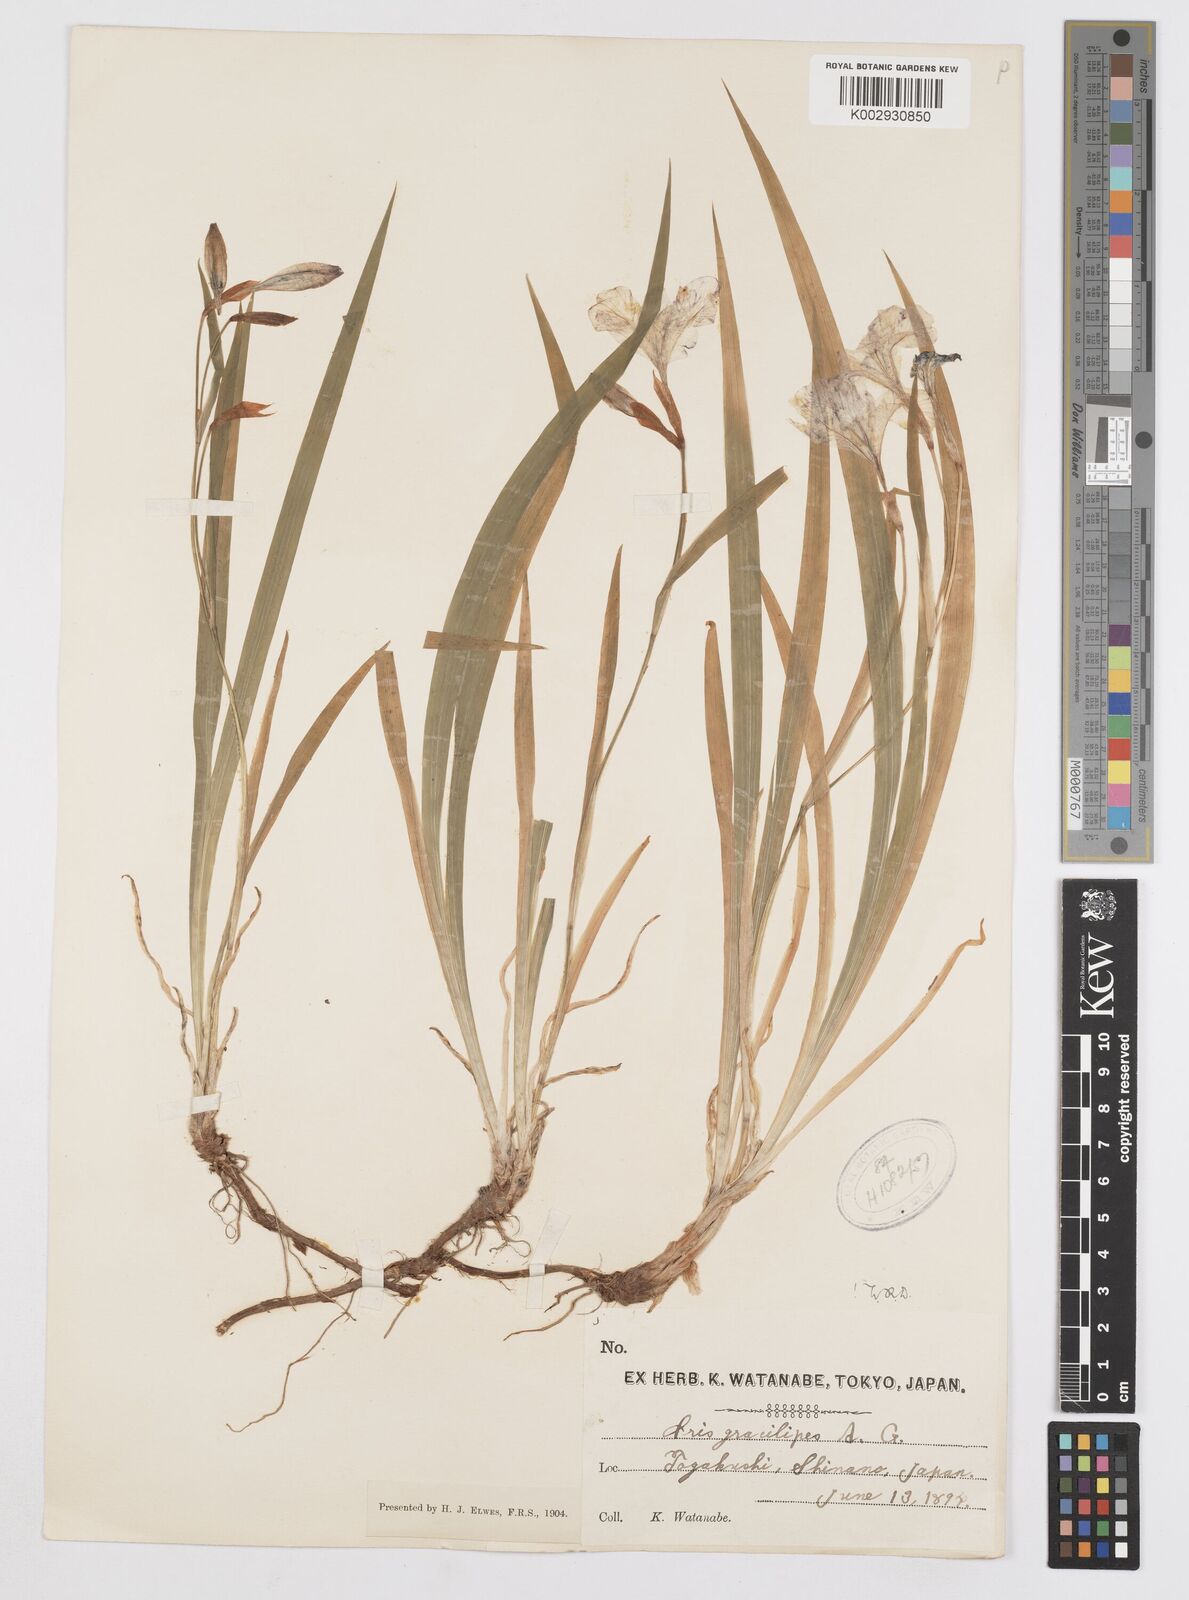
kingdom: Plantae
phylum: Tracheophyta
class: Liliopsida
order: Asparagales
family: Iridaceae
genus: Iris
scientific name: Iris gracilipes
